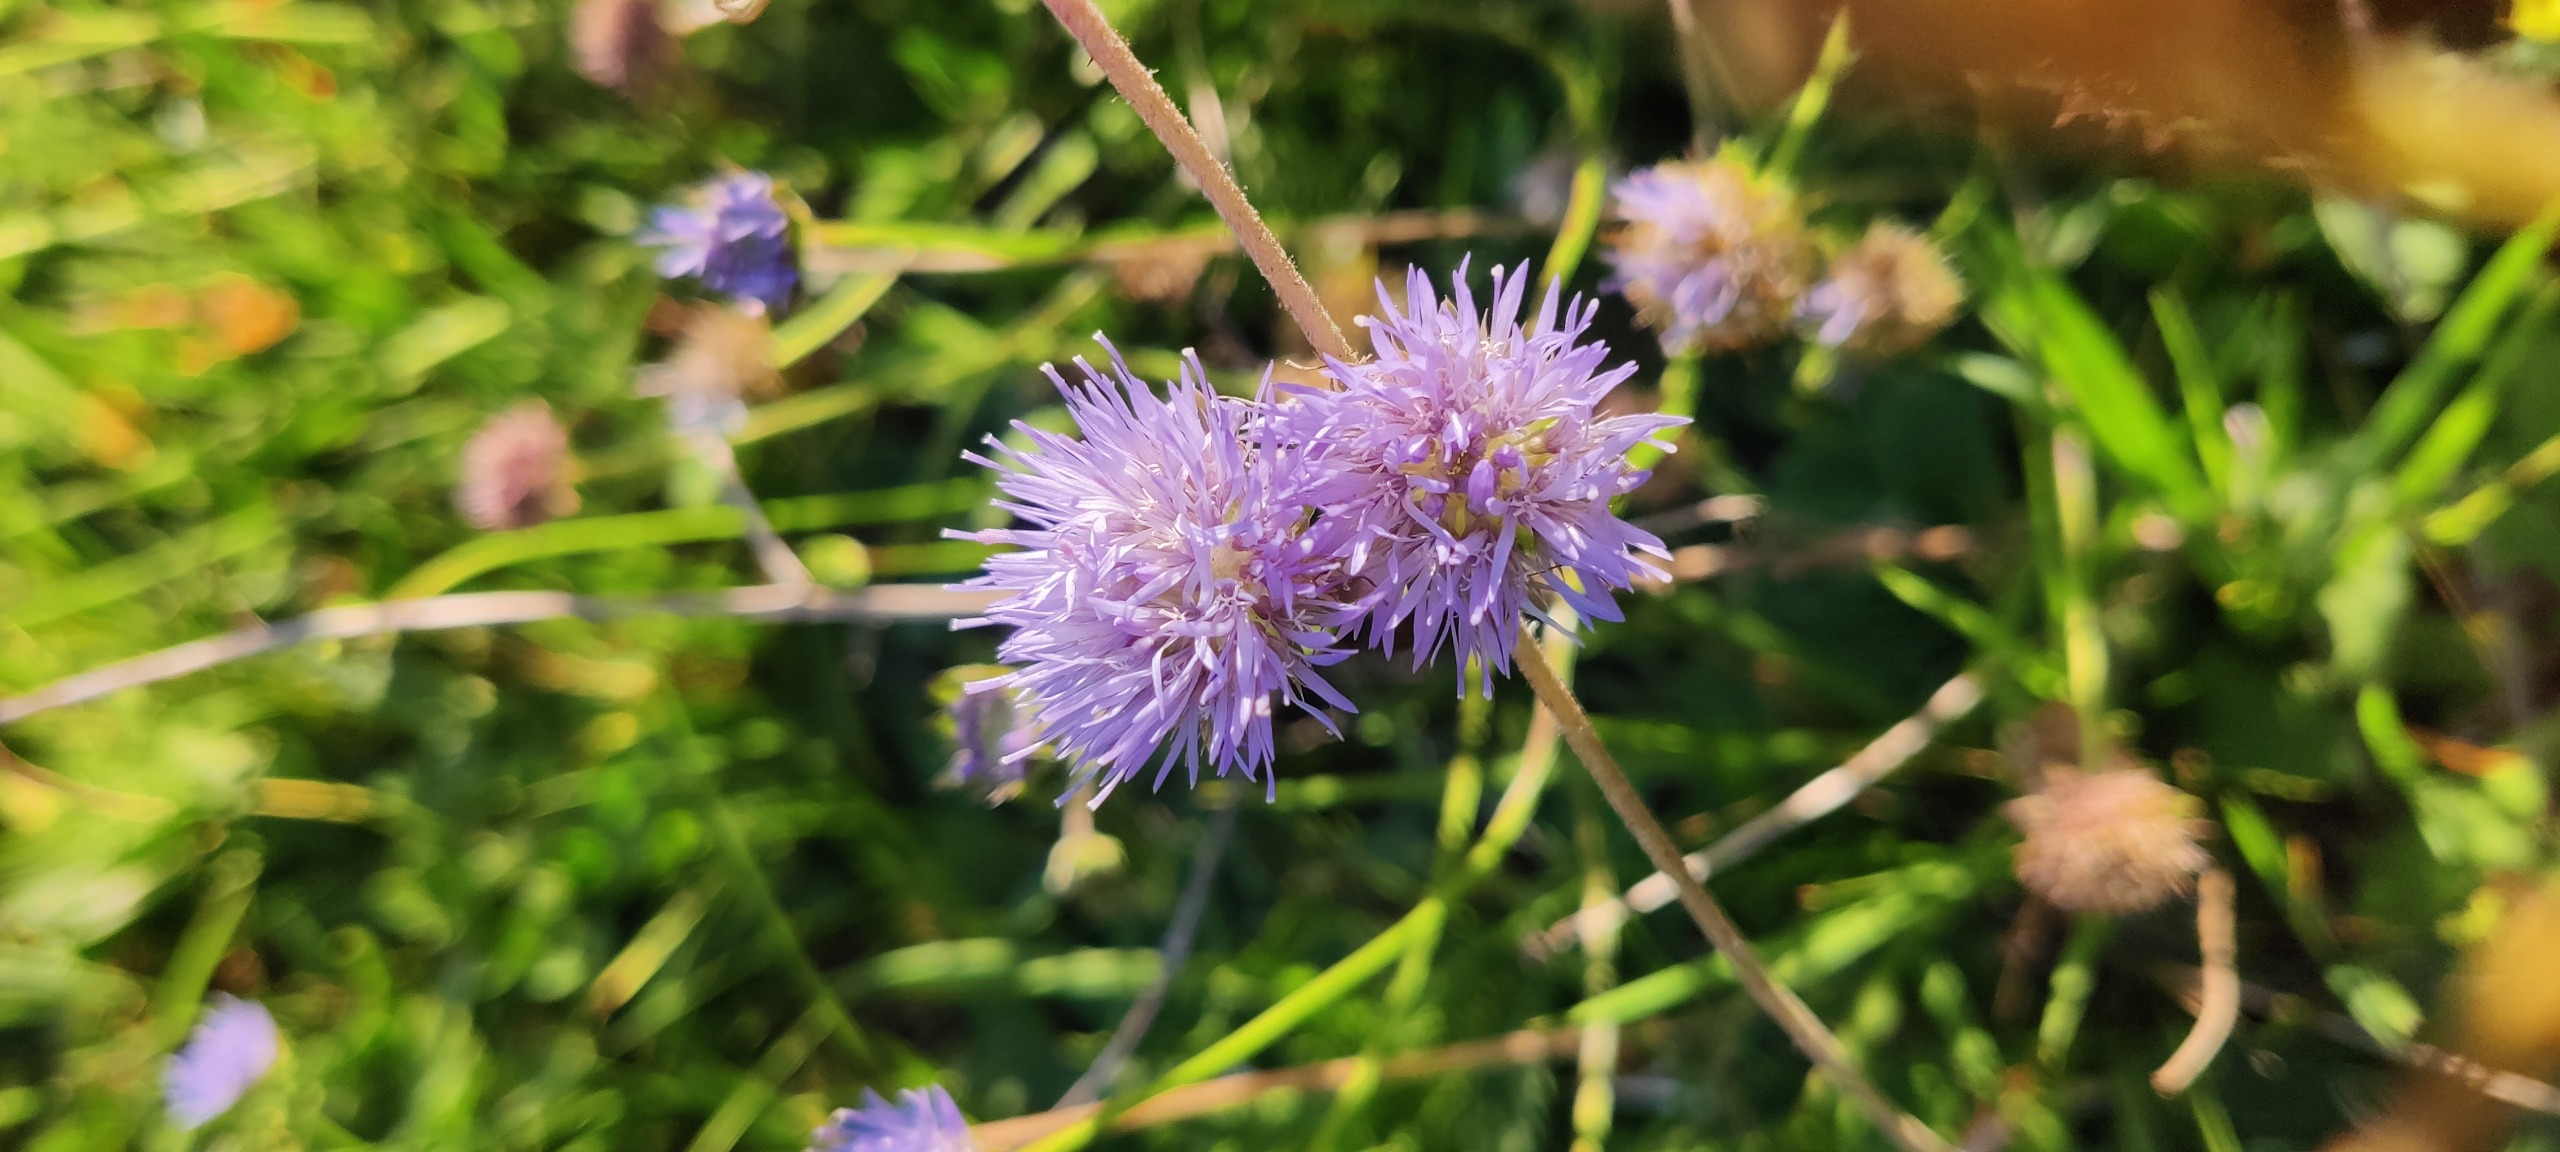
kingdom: Plantae
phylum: Tracheophyta
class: Magnoliopsida
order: Asterales
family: Campanulaceae
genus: Jasione
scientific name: Jasione montana
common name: Blåmunke
